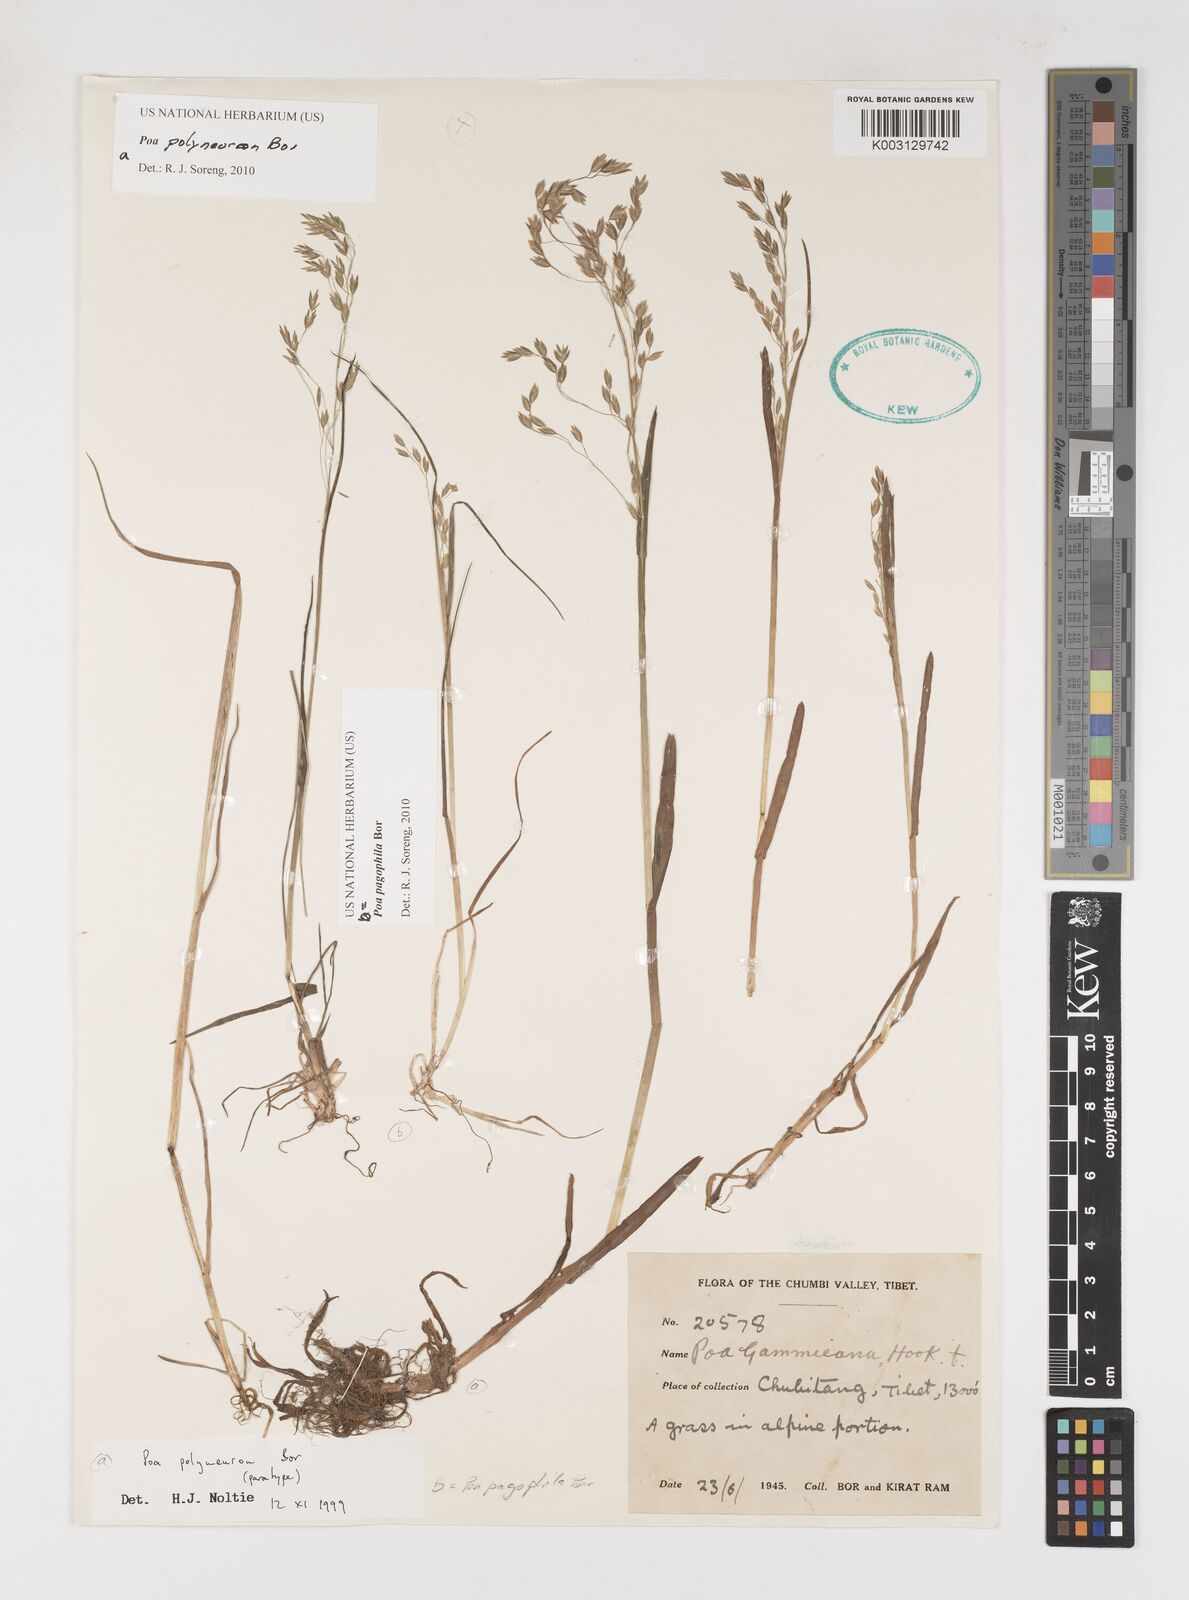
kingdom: Plantae
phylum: Tracheophyta
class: Liliopsida
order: Poales
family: Poaceae
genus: Poa
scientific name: Poa polyneura
